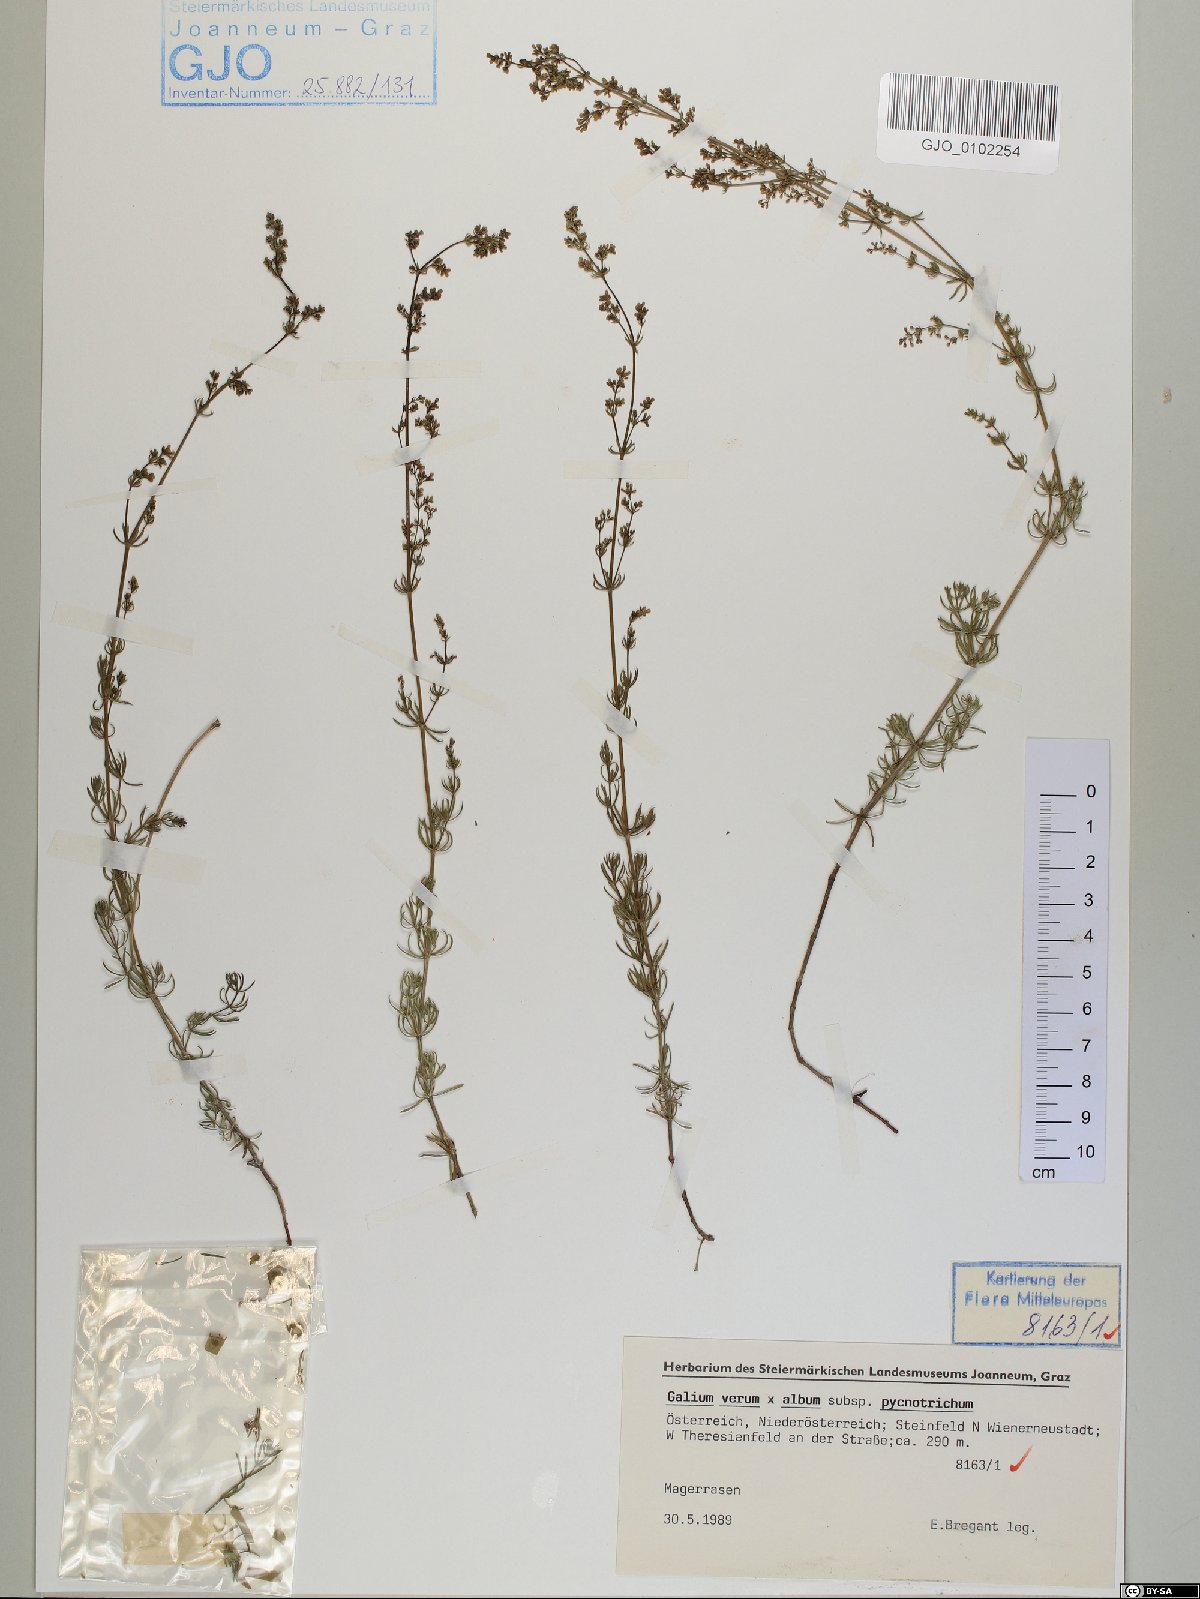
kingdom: Plantae
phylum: Tracheophyta
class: Magnoliopsida
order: Gentianales
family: Rubiaceae
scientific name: Rubiaceae
